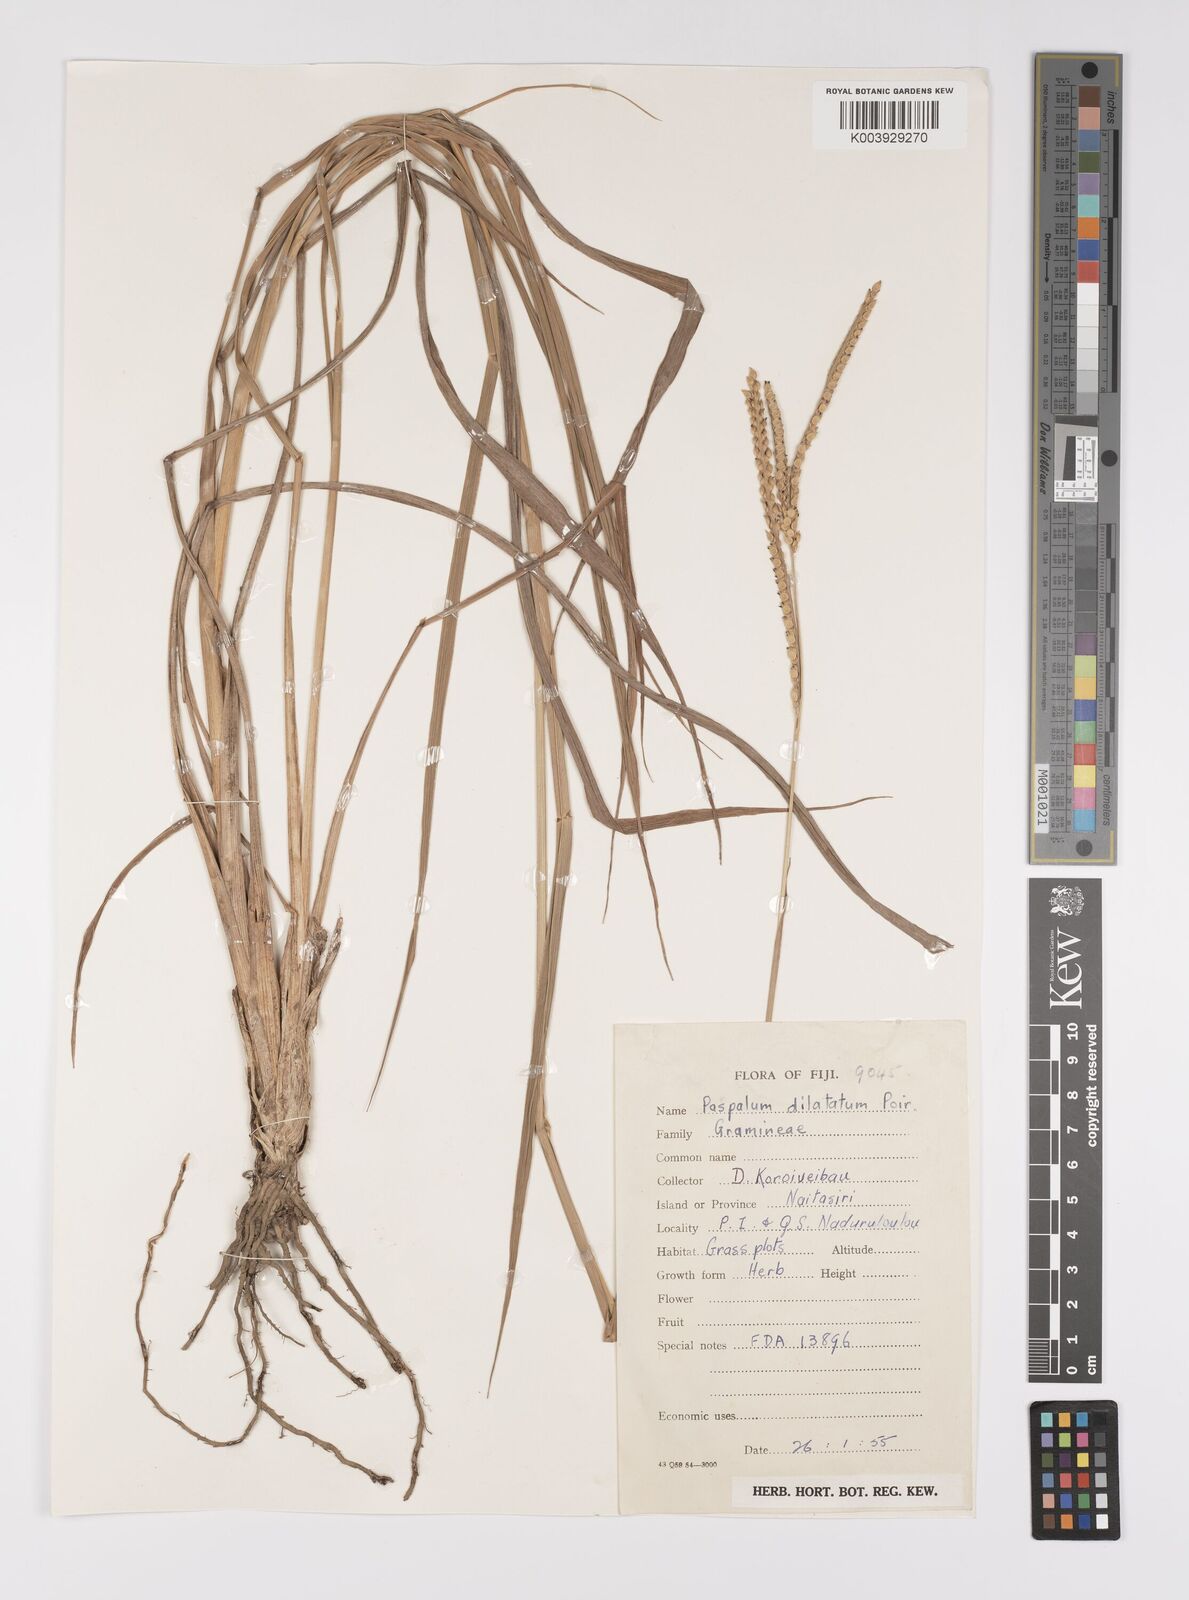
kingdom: Plantae
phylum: Tracheophyta
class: Liliopsida
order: Poales
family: Poaceae
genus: Paspalum
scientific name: Paspalum dilatatum
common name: Dallisgrass
